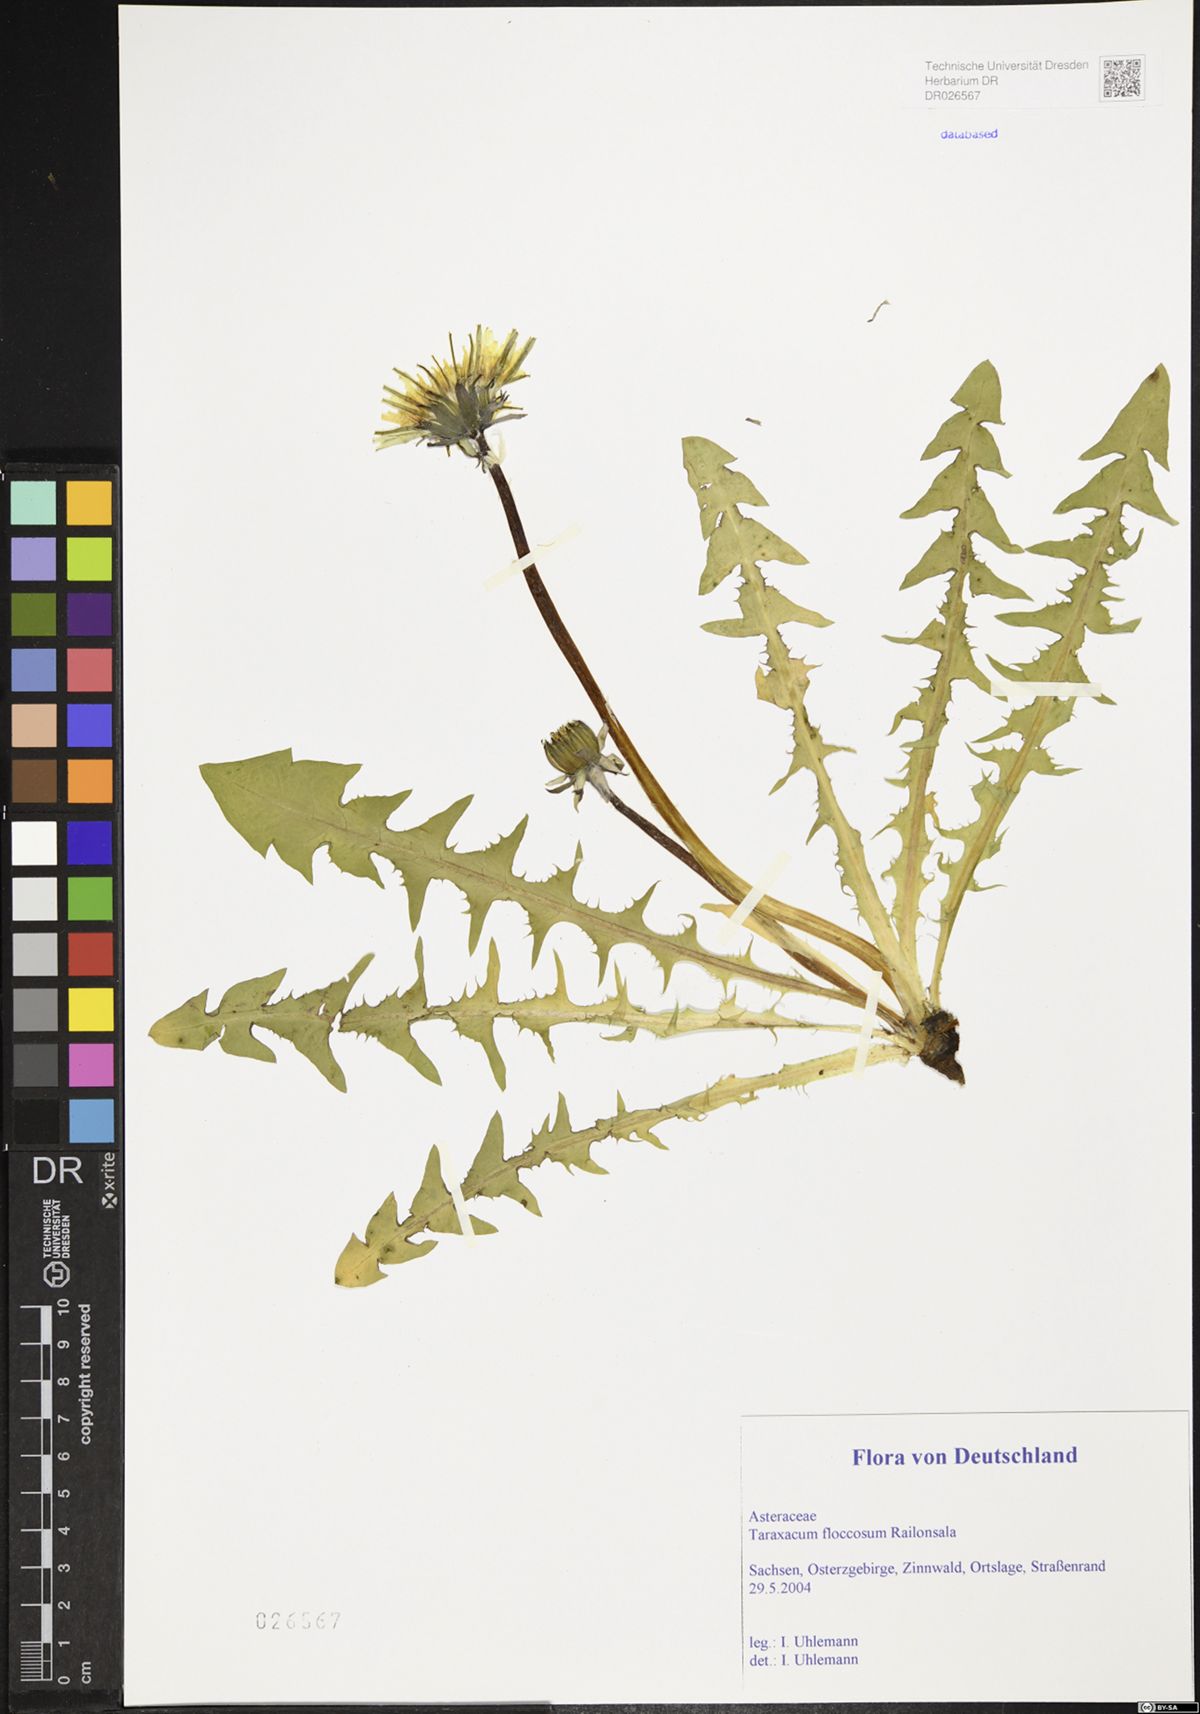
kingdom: Plantae
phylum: Tracheophyta
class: Magnoliopsida
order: Asterales
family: Asteraceae
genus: Taraxacum
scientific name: Taraxacum floccosum
